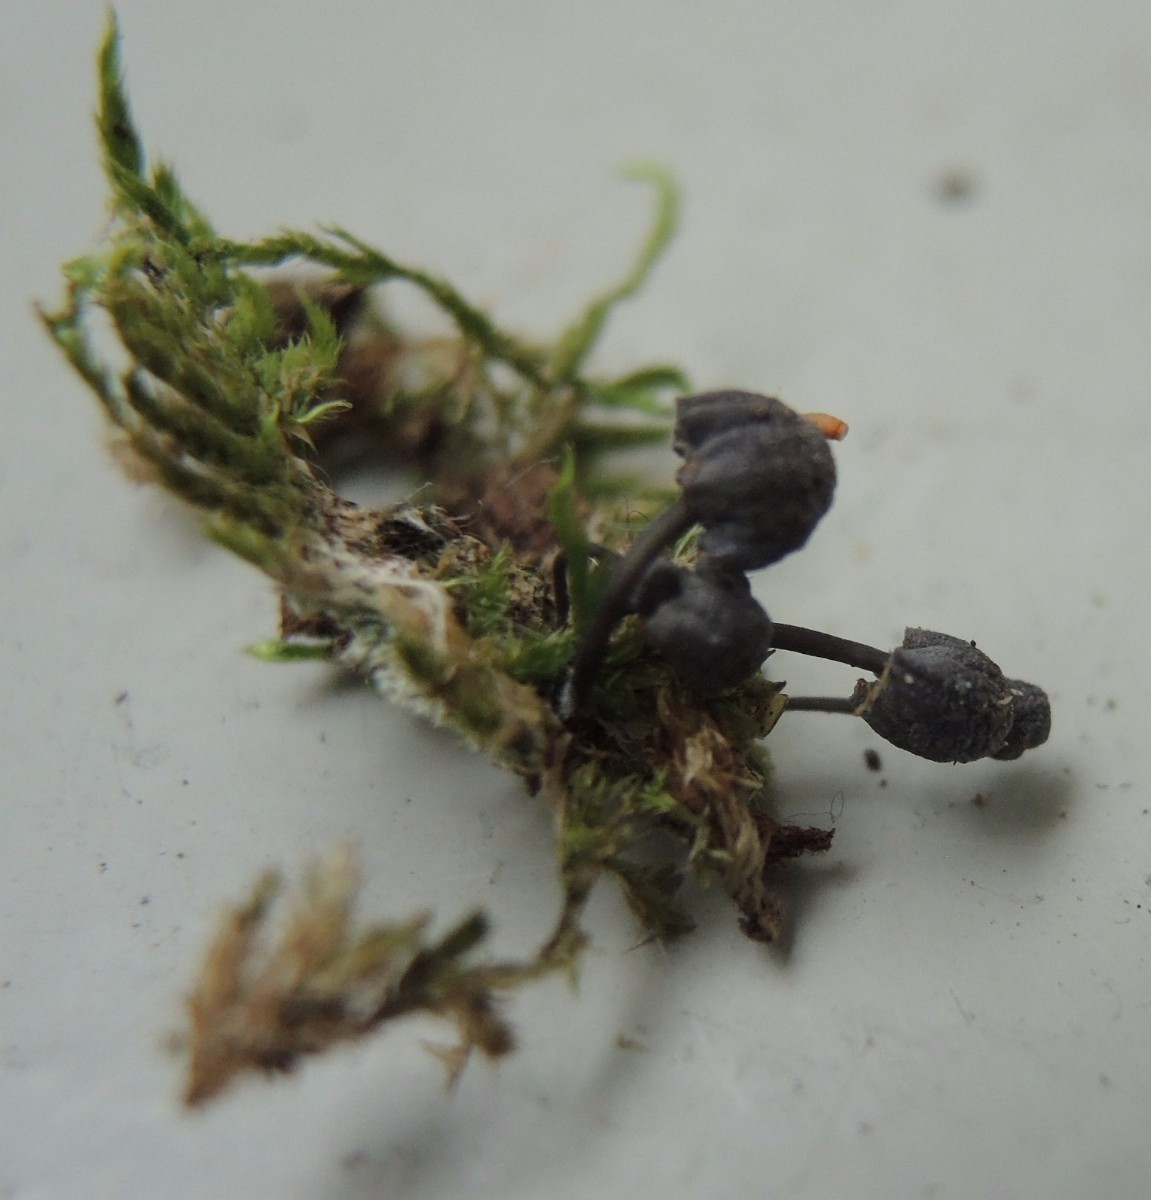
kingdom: Fungi
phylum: Basidiomycota
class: Agaricomycetes
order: Agaricales
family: Mycenaceae
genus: Mycena
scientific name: Mycena pseudocorticola
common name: gråblå bark-huesvamp
